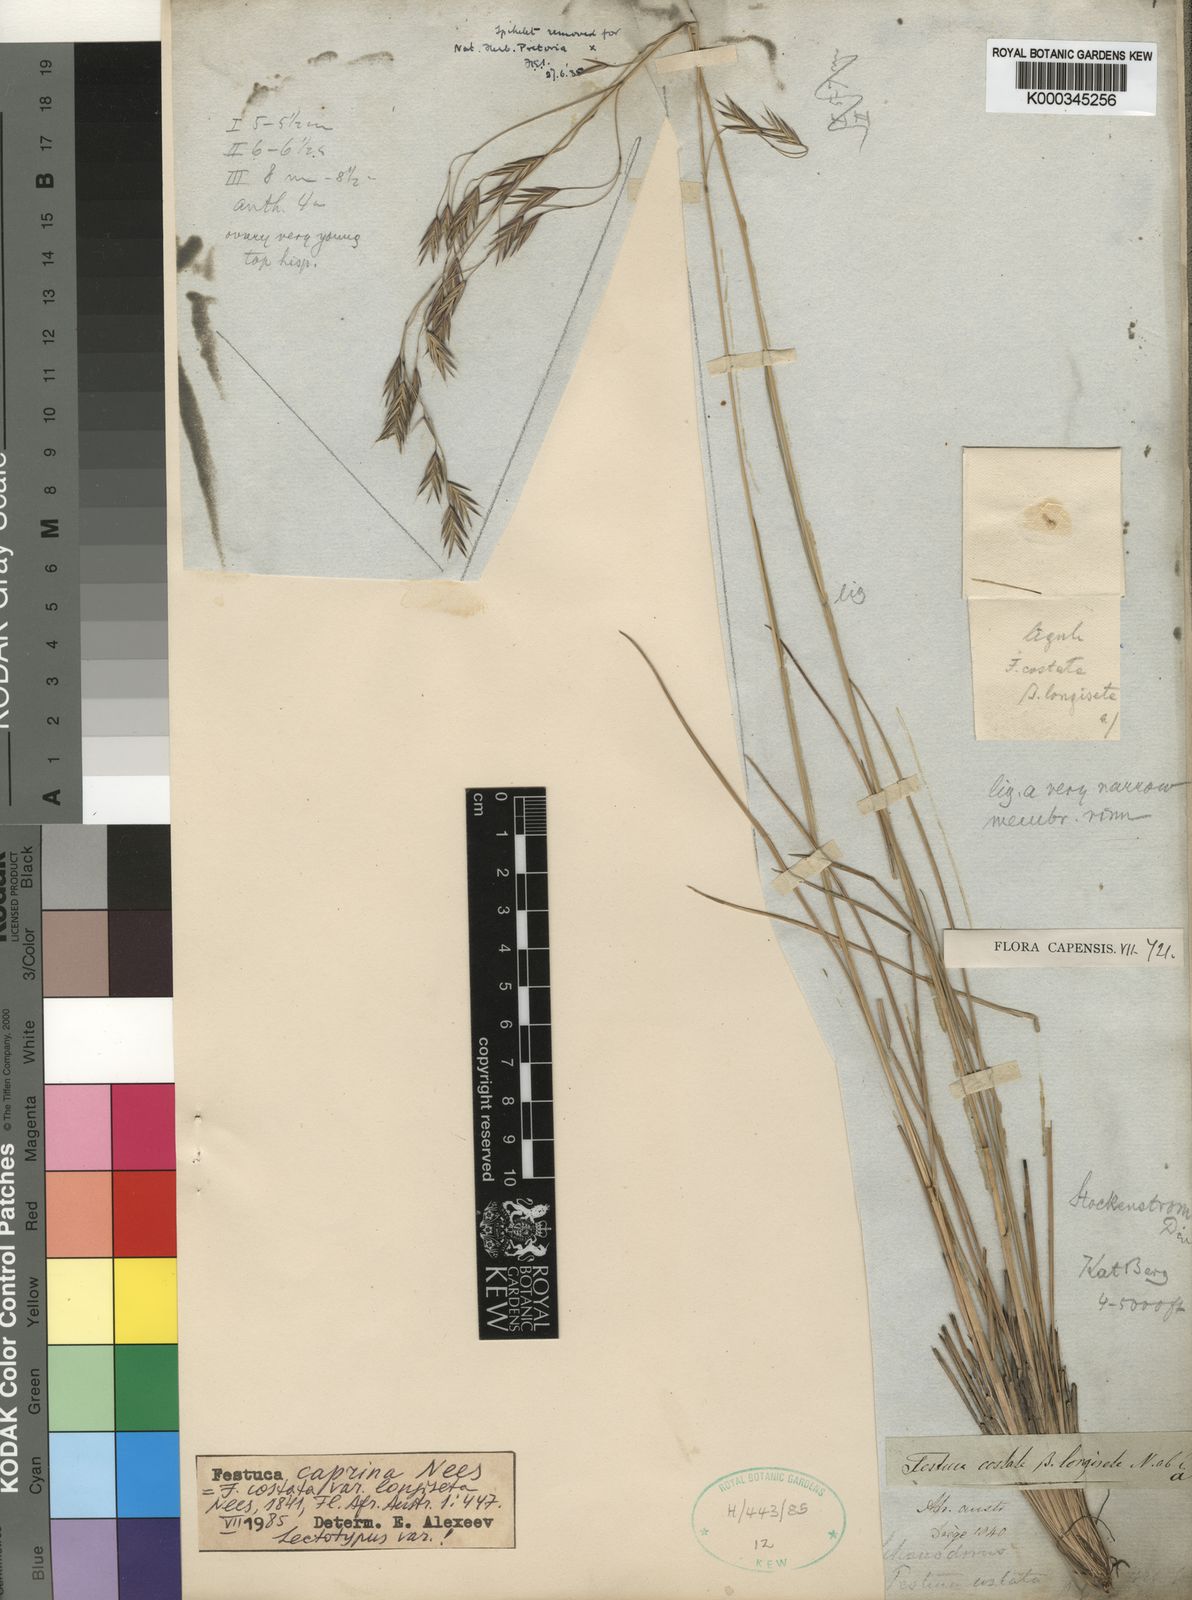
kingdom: Plantae
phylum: Tracheophyta
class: Liliopsida
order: Poales
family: Poaceae
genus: Festuca
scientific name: Festuca caprina
